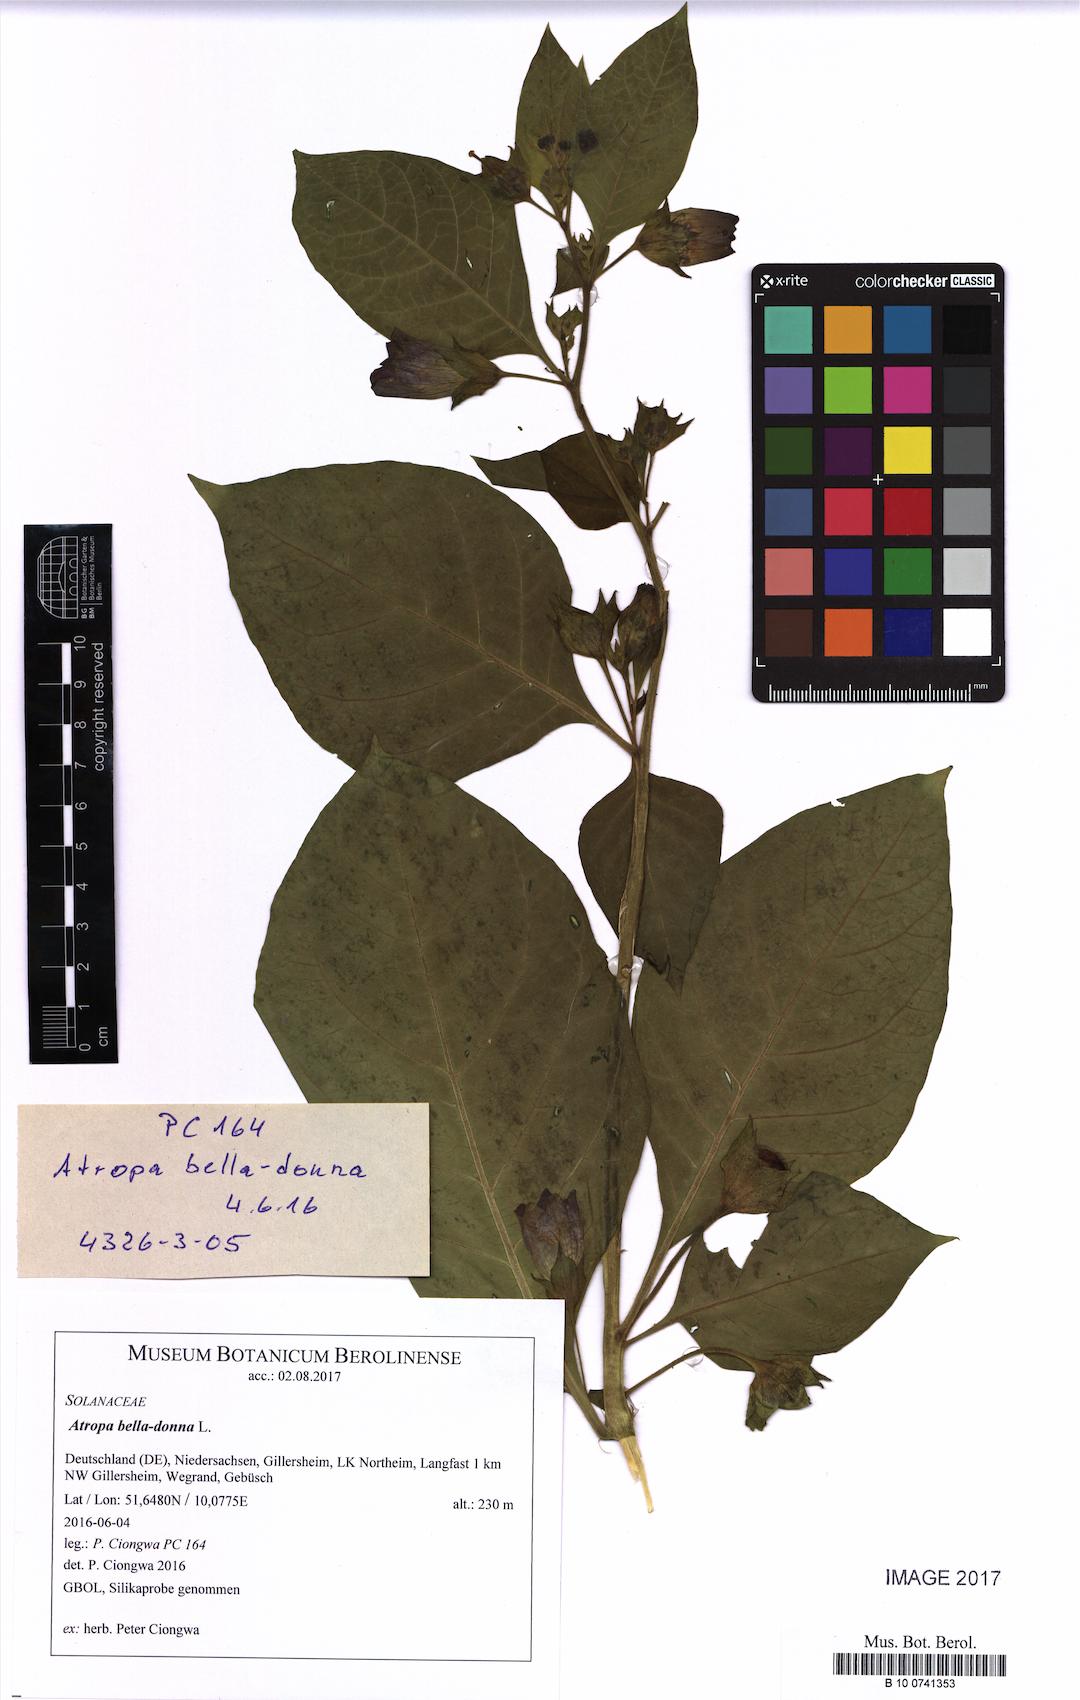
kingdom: Plantae
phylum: Tracheophyta
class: Magnoliopsida
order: Solanales
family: Solanaceae
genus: Atropa
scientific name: Atropa belladonna
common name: Deadly nightshade
